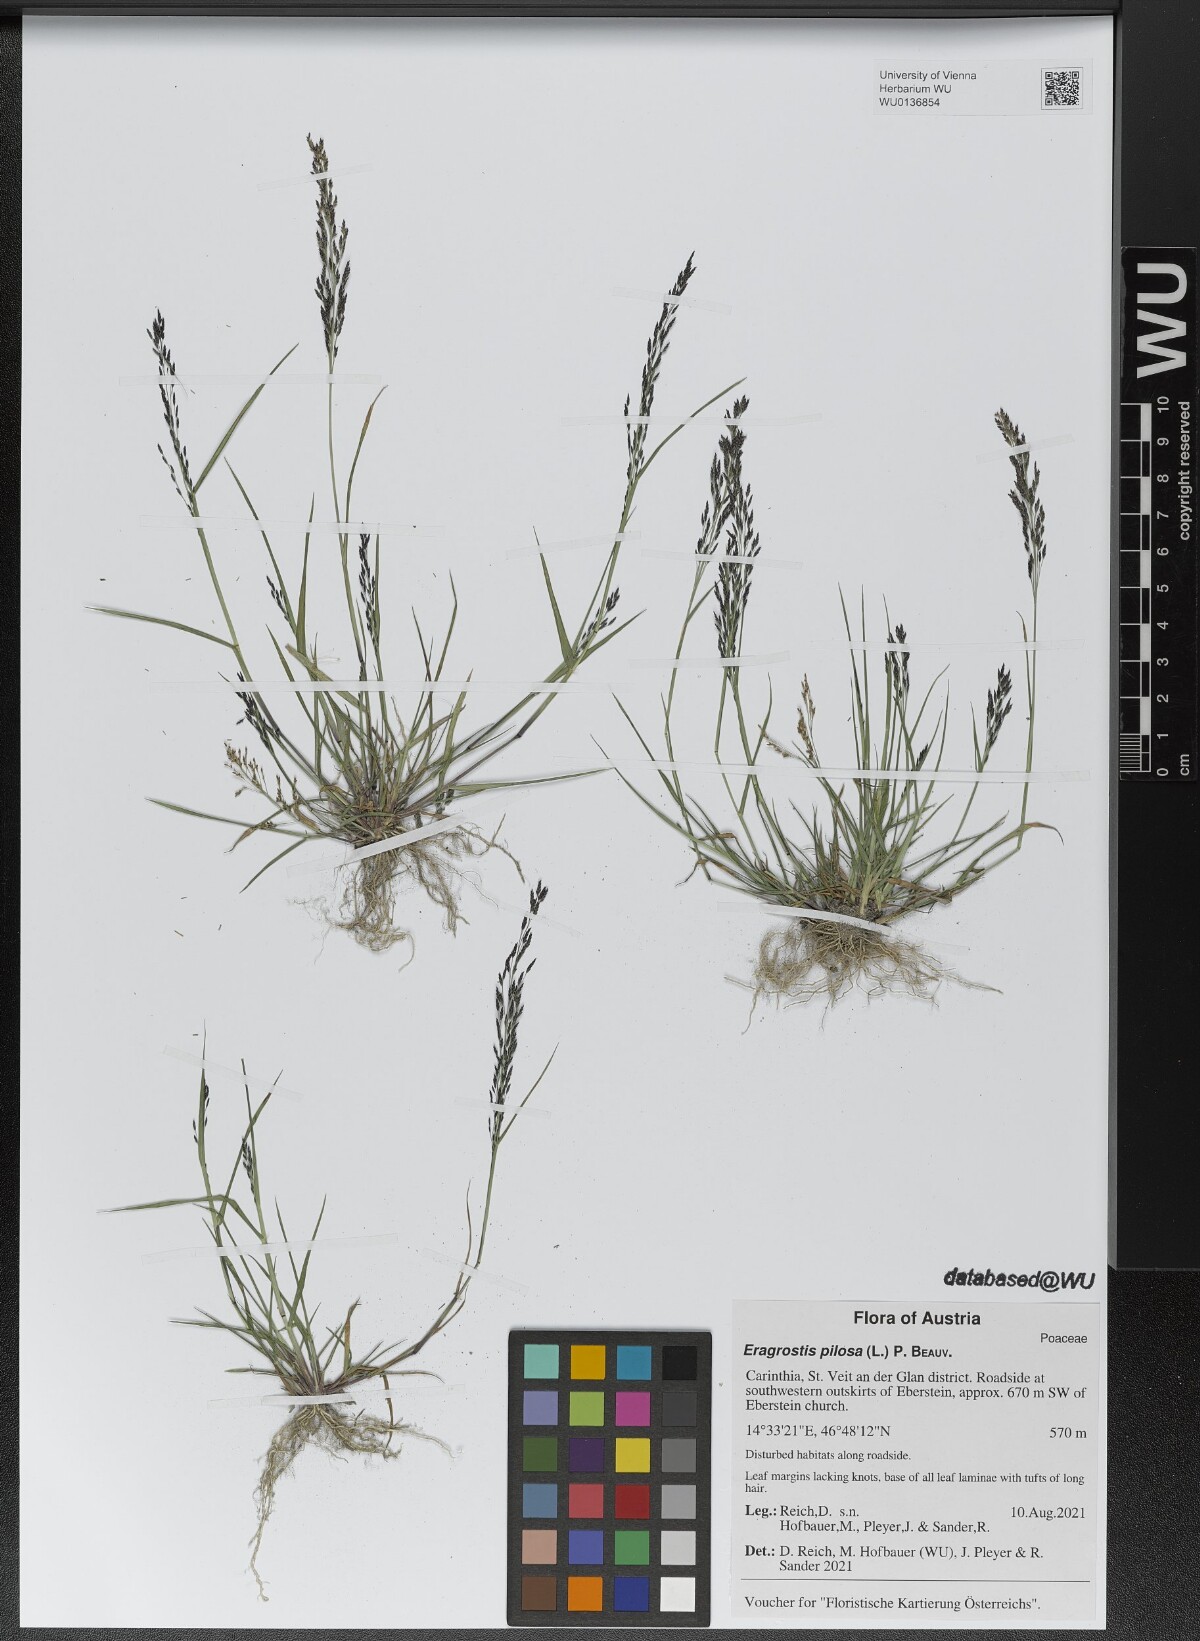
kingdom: Plantae
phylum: Tracheophyta
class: Liliopsida
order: Poales
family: Poaceae
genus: Eragrostis
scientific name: Eragrostis pilosa
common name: Indian lovegrass
